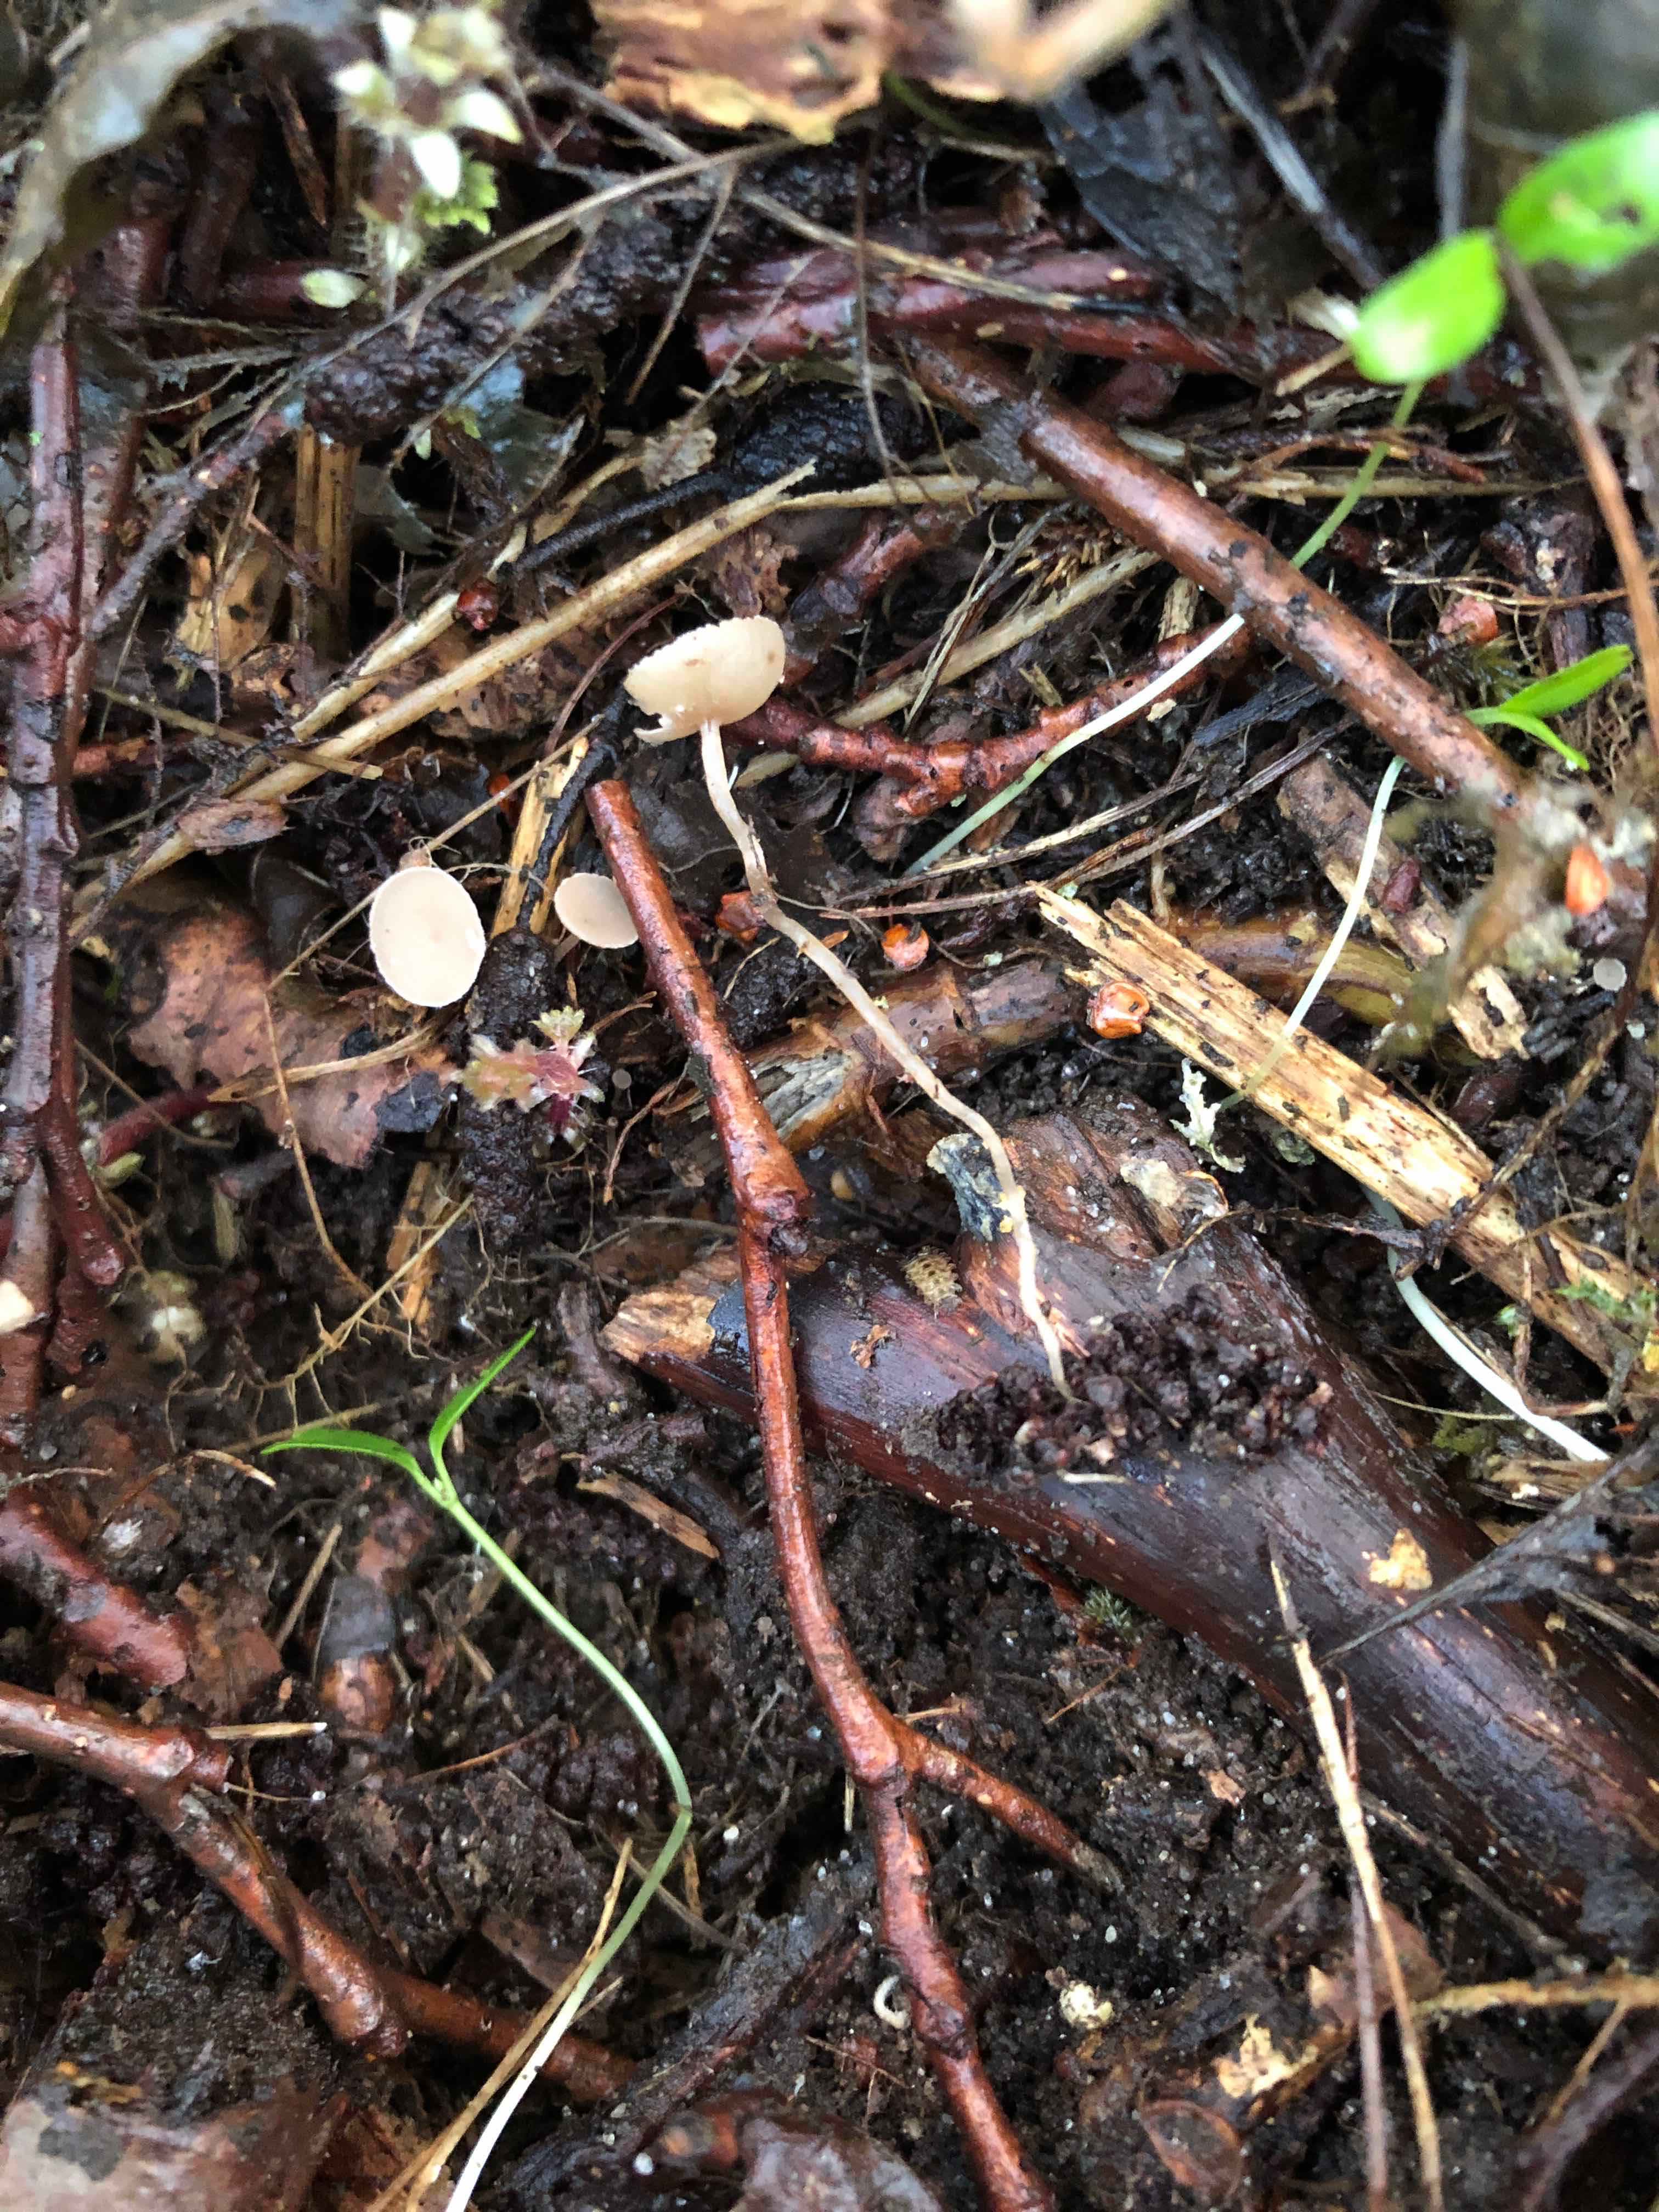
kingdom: Fungi
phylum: Ascomycota
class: Leotiomycetes
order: Helotiales
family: Sclerotiniaceae
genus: Ciboria
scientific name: Ciboria amentacea
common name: ellerakle-knoldskive
